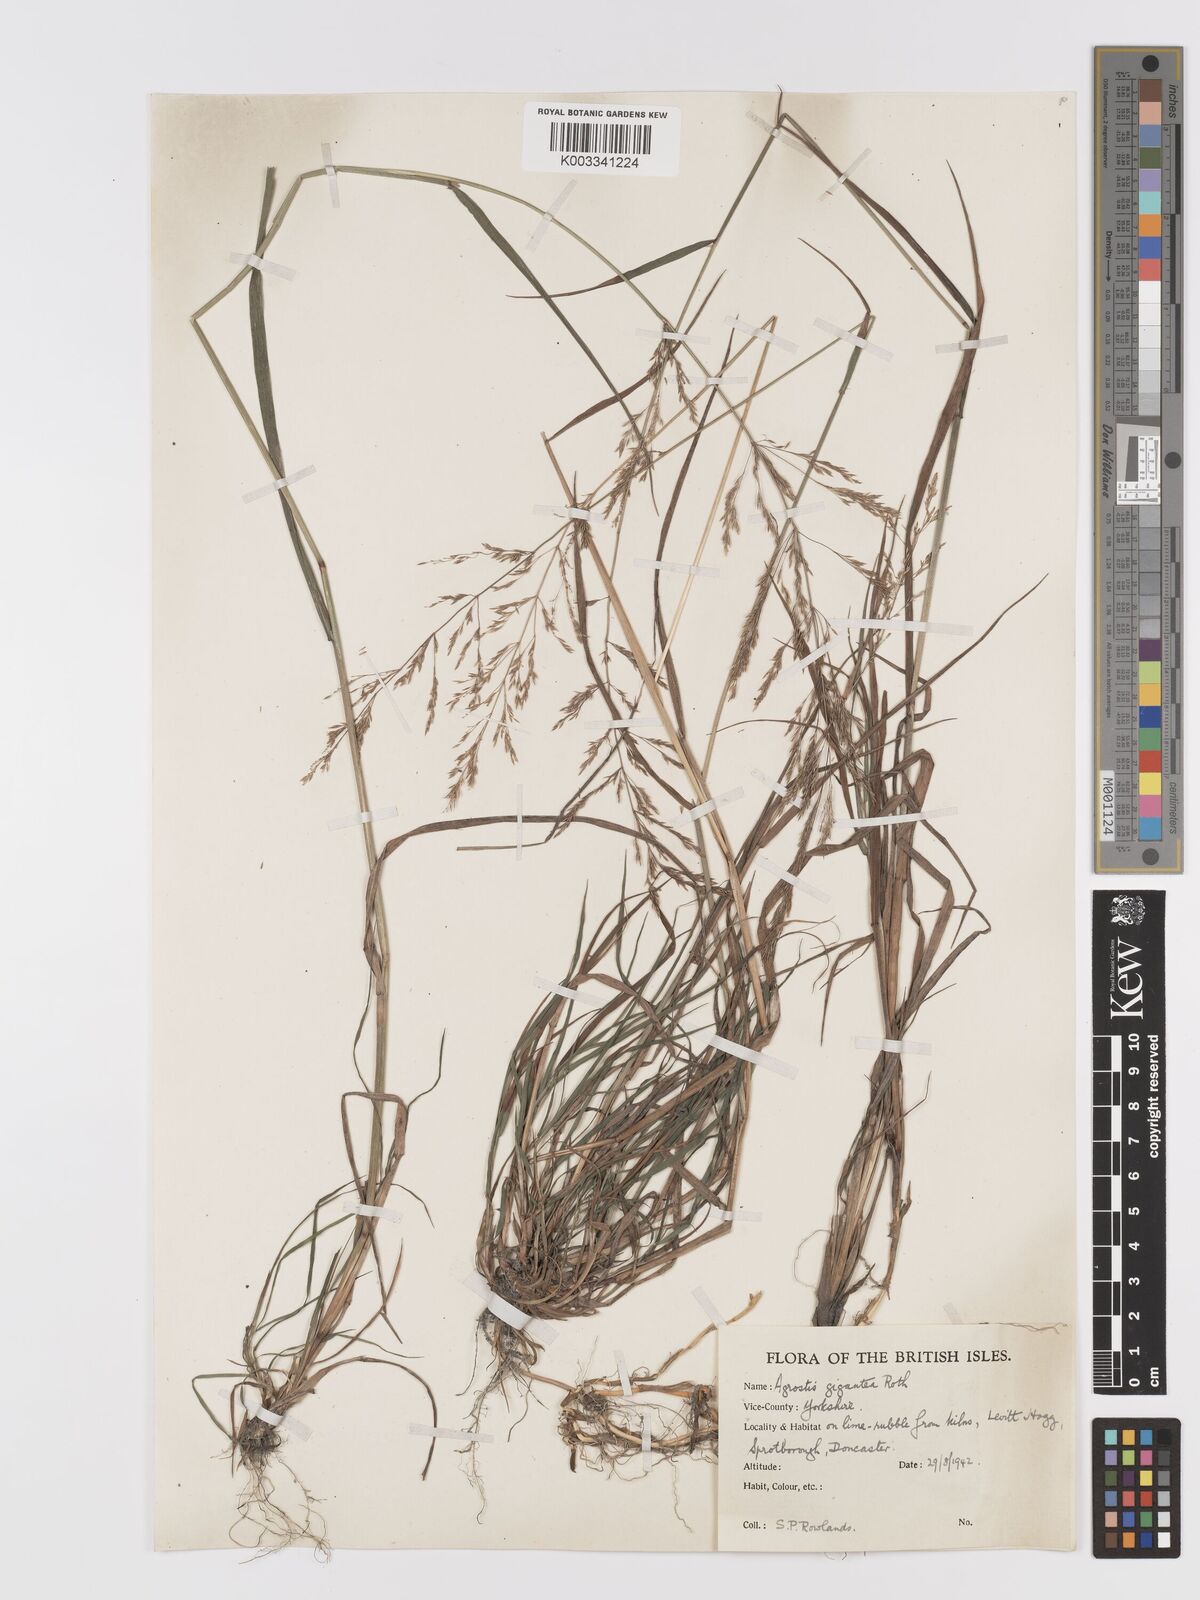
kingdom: Plantae
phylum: Tracheophyta
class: Liliopsida
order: Poales
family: Poaceae
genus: Agrostis
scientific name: Agrostis gigantea
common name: Black bent
